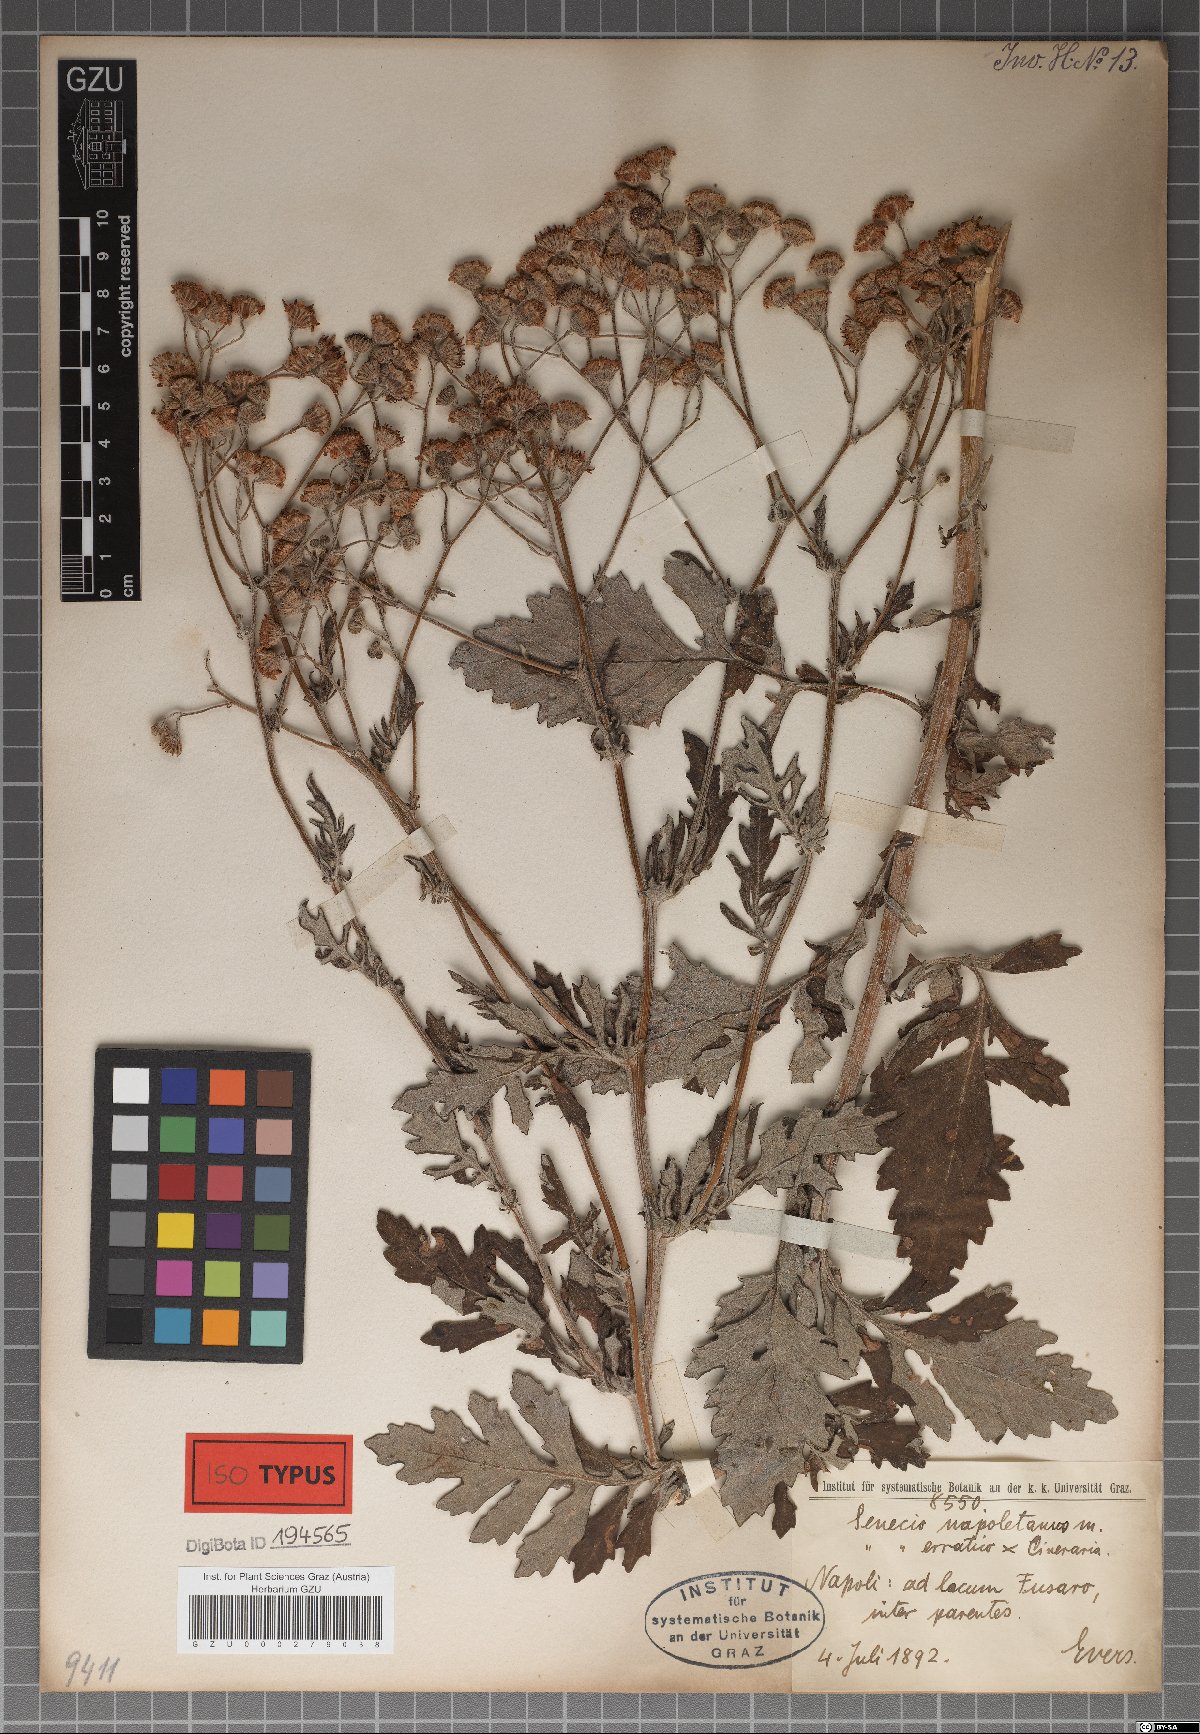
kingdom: Plantae
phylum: Tracheophyta
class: Magnoliopsida
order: Asterales
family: Asteraceae
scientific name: Asteraceae
